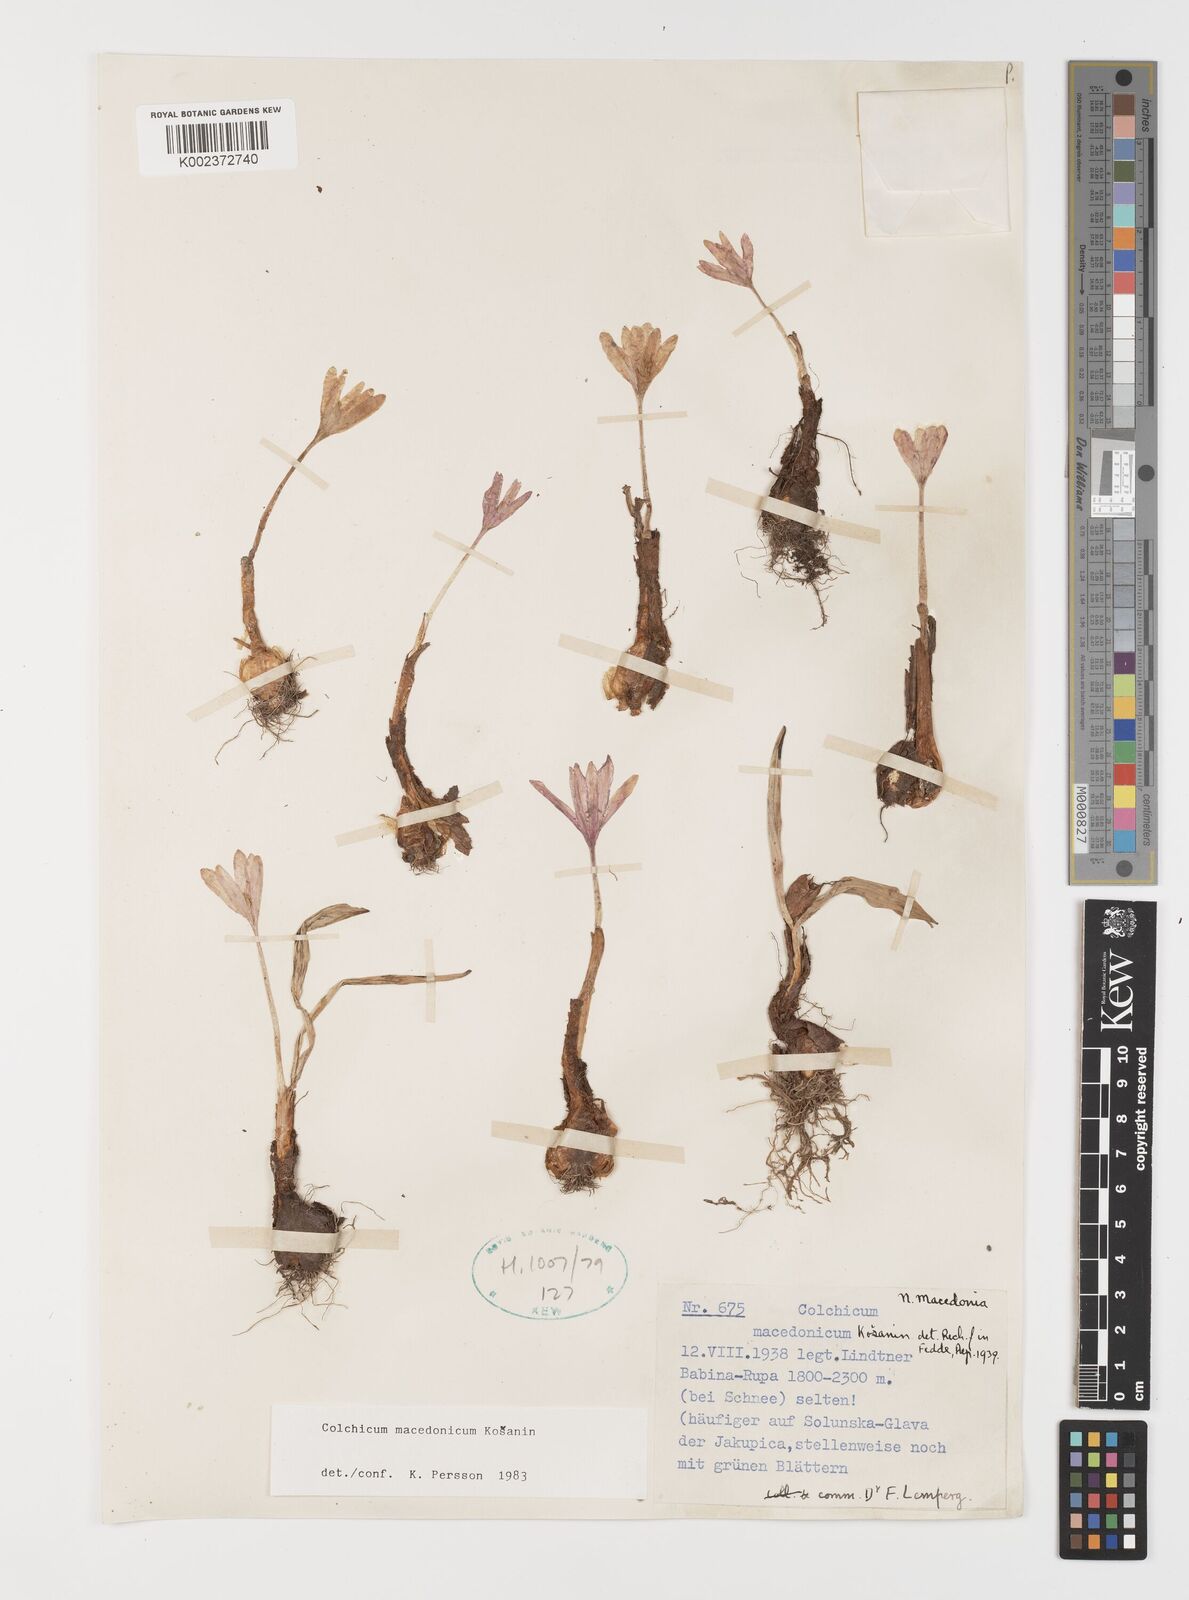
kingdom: Plantae
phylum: Tracheophyta
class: Liliopsida
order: Liliales
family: Colchicaceae
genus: Colchicum
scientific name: Colchicum macedonicum
